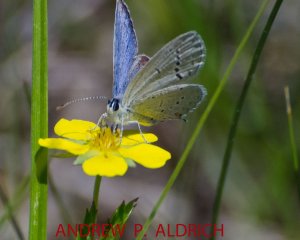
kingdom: Animalia
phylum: Arthropoda
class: Insecta
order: Lepidoptera
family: Lycaenidae
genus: Elkalyce
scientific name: Elkalyce comyntas
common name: Eastern Tailed-Blue
